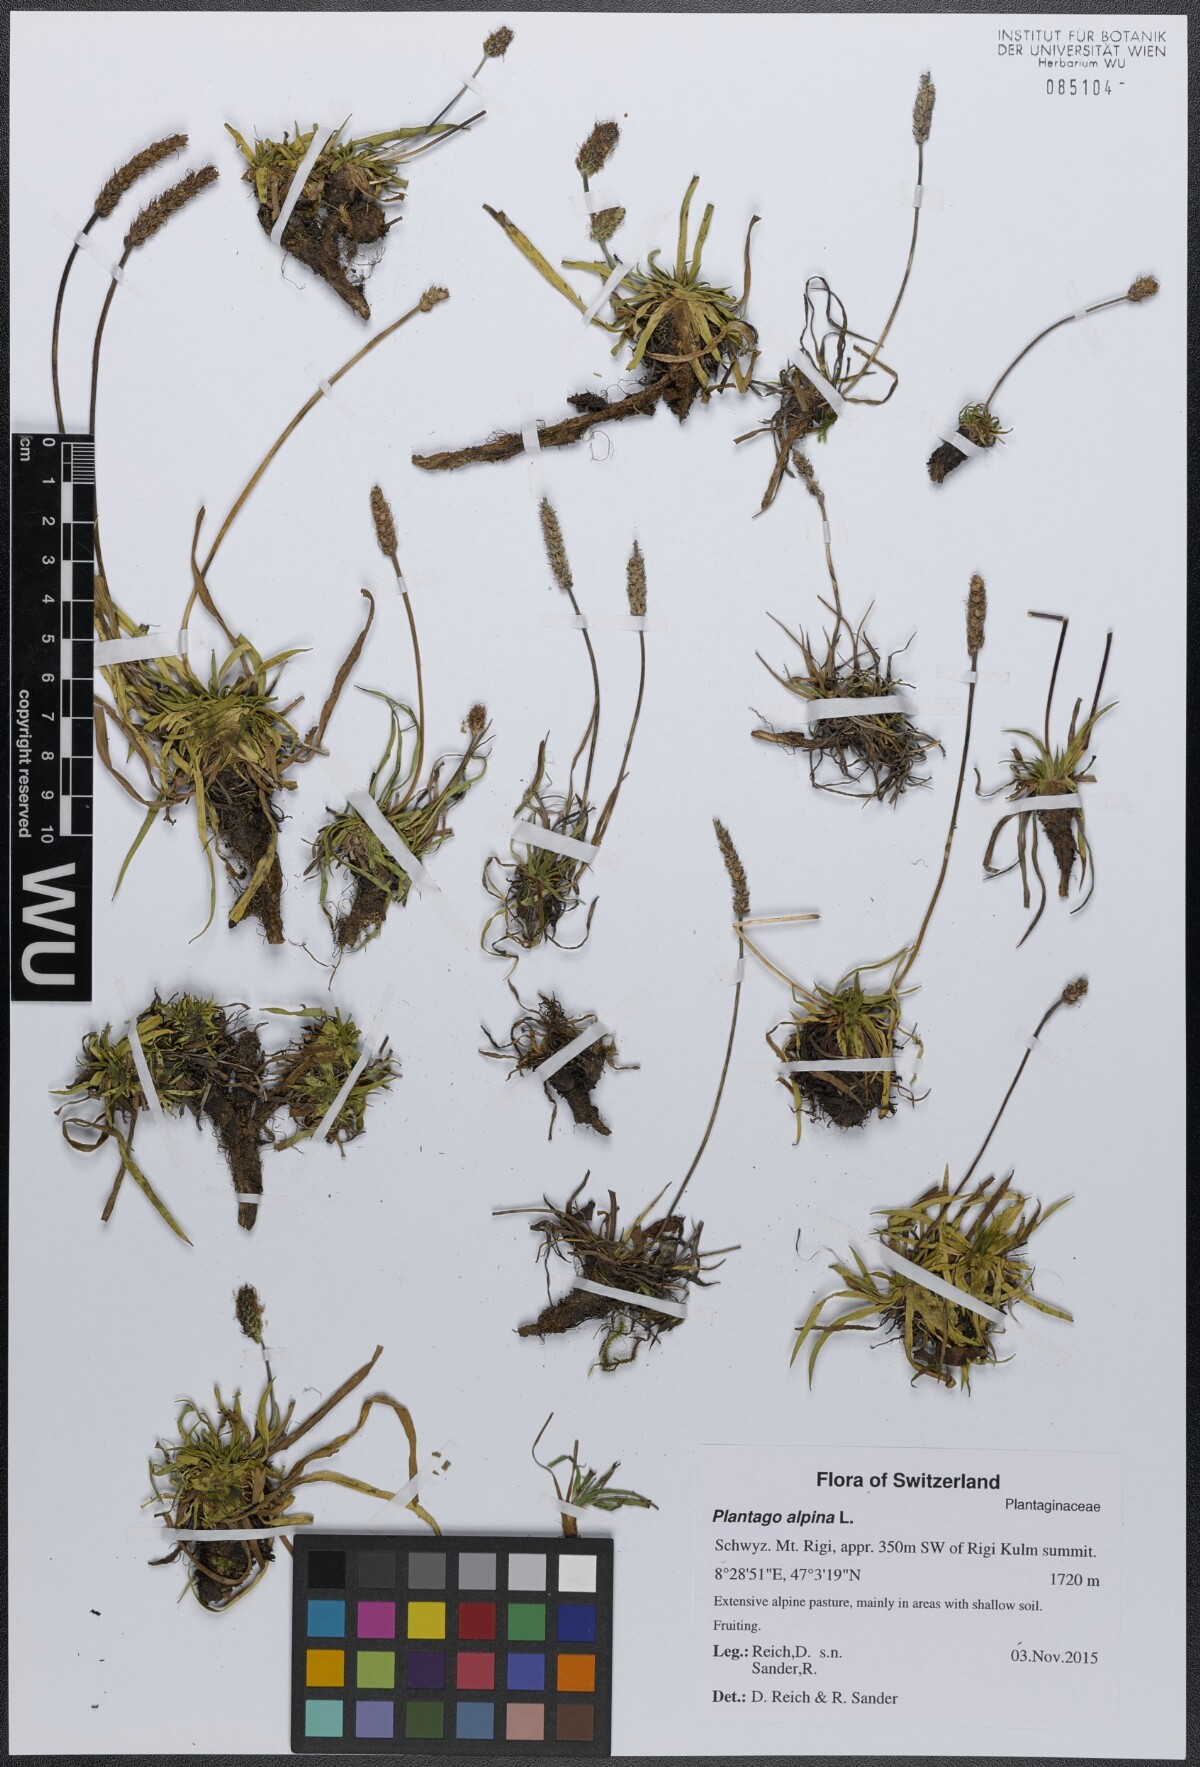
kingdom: Plantae
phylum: Tracheophyta
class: Magnoliopsida
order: Lamiales
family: Plantaginaceae
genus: Plantago
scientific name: Plantago alpina
